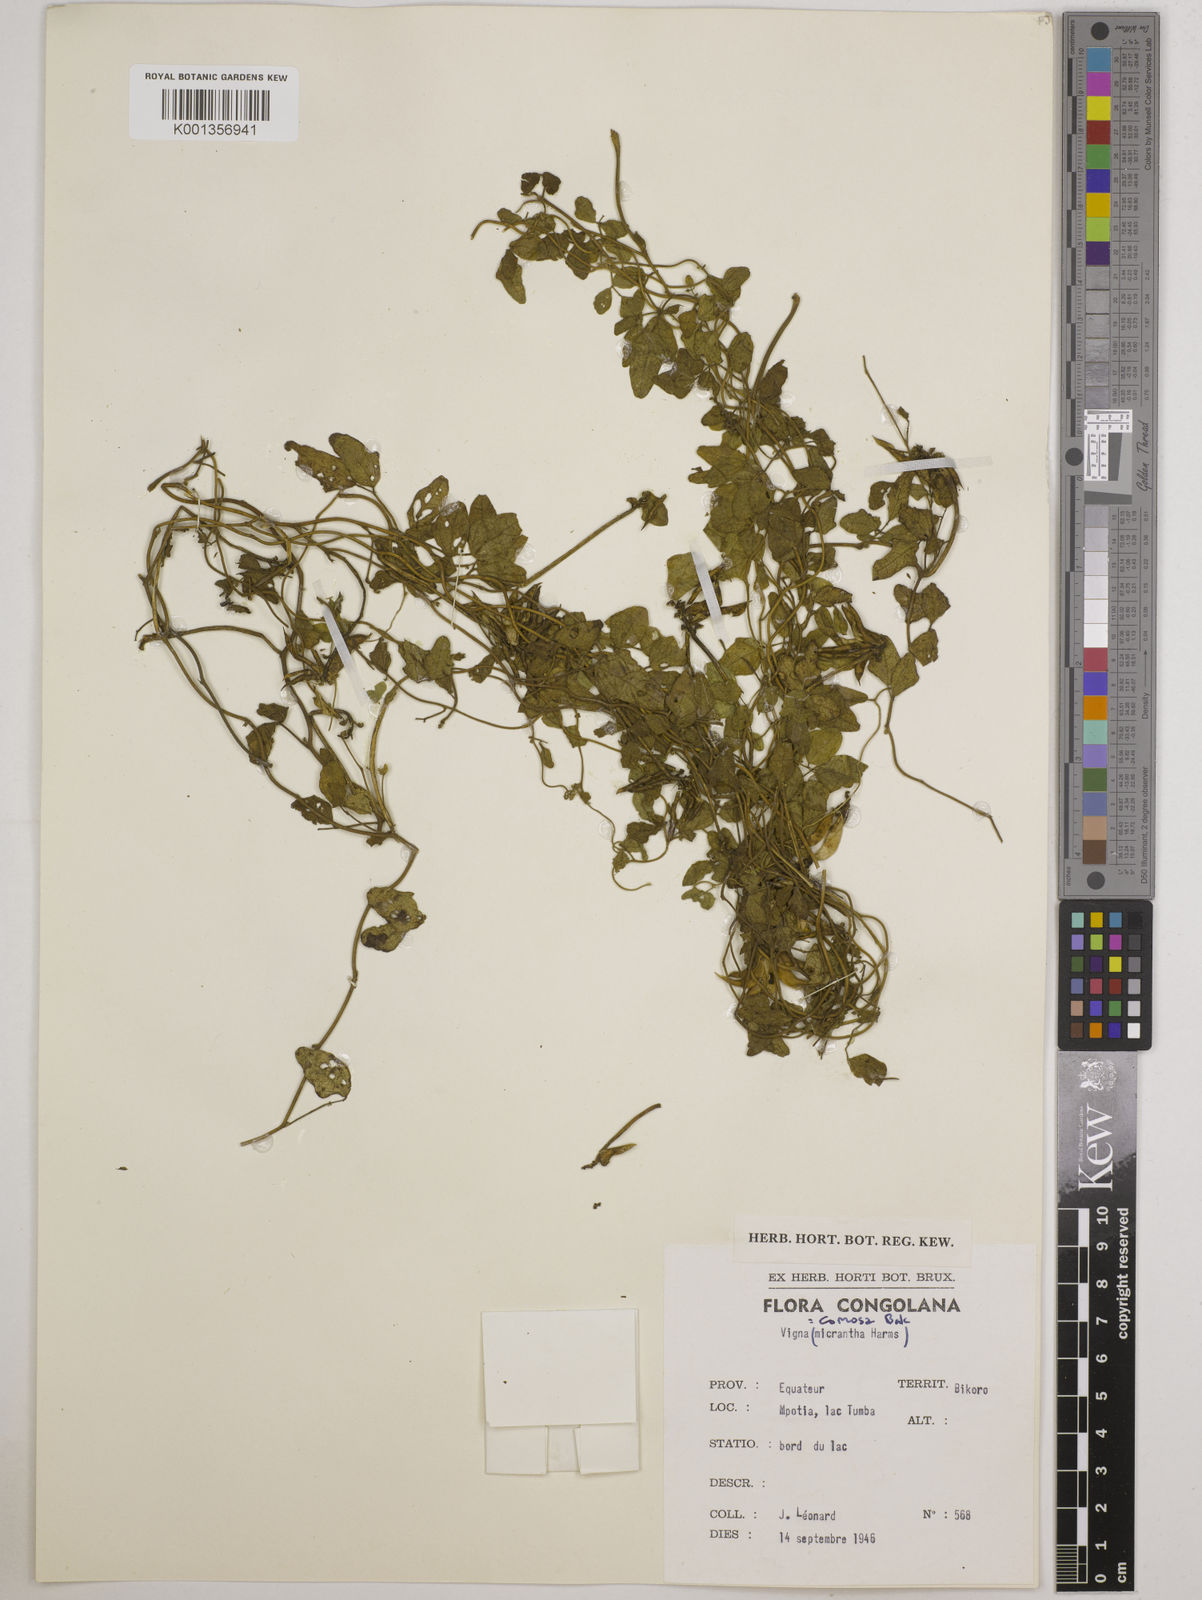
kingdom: Plantae
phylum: Tracheophyta
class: Magnoliopsida
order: Fabales
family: Fabaceae
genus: Vigna
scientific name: Vigna comosa
